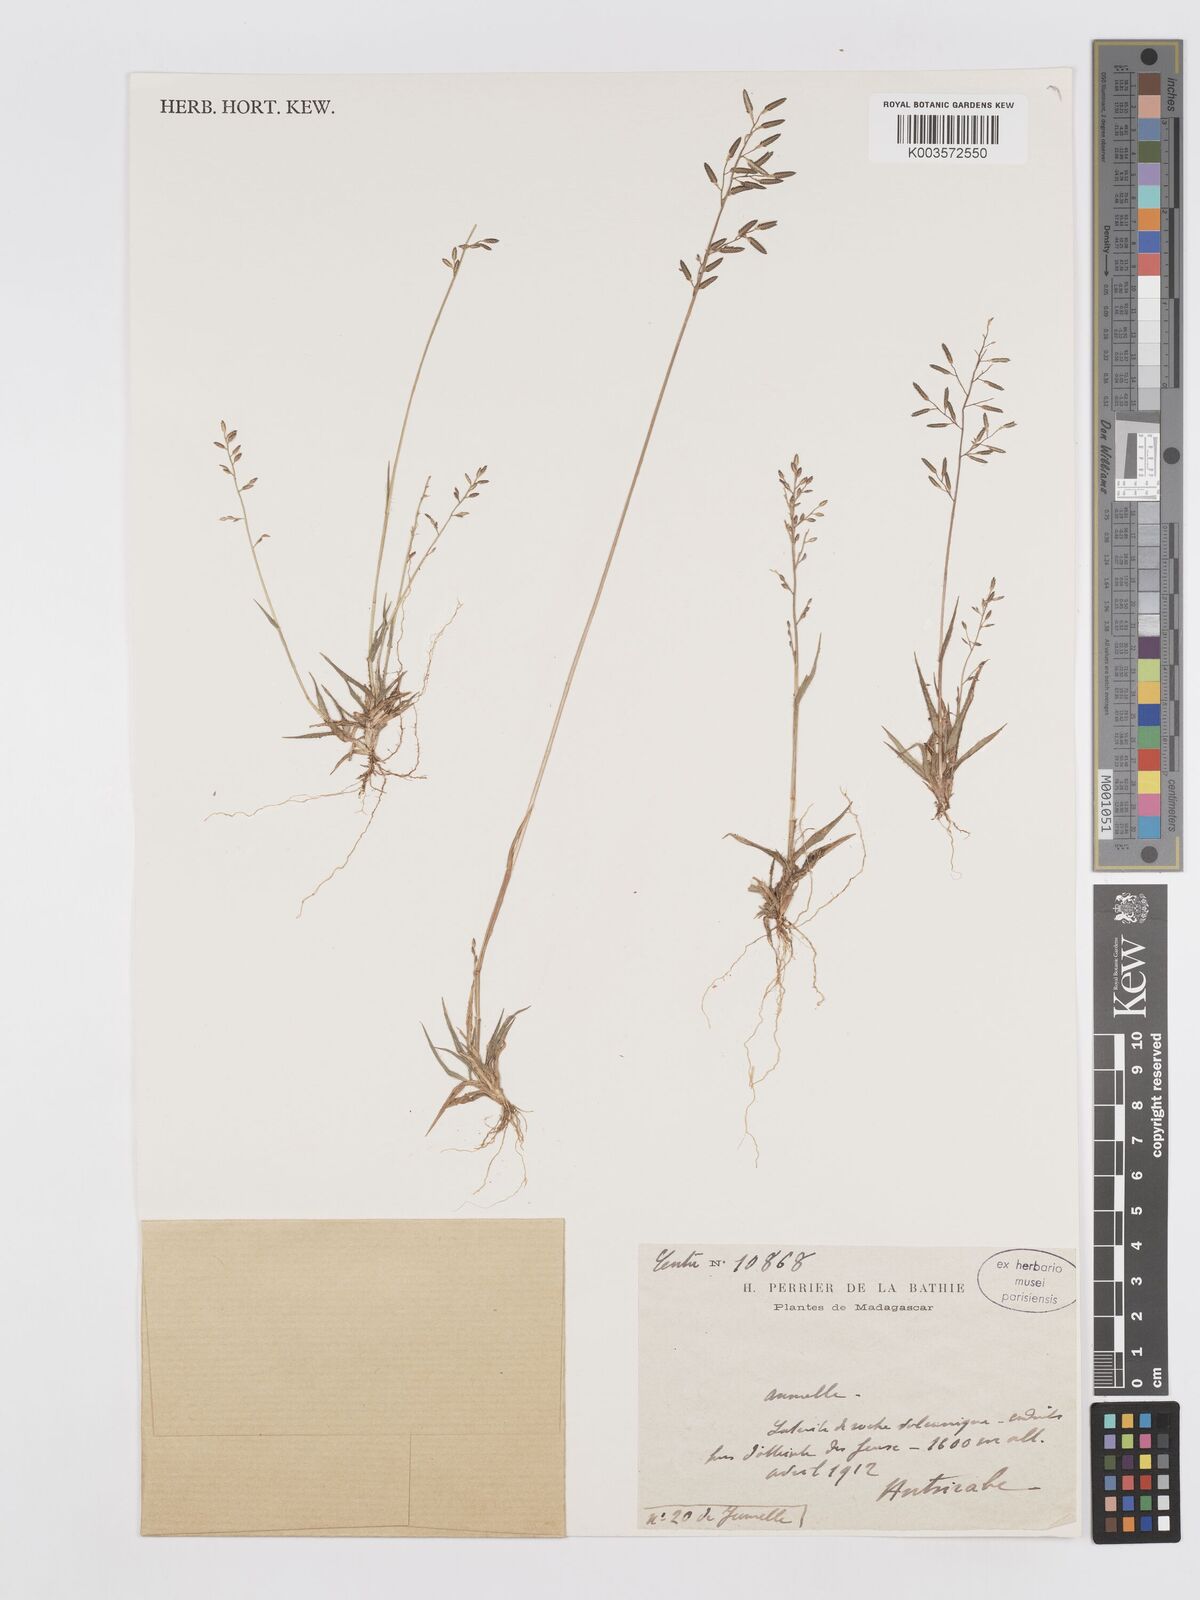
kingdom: Plantae
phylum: Tracheophyta
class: Liliopsida
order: Poales
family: Poaceae
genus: Eragrostis
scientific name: Eragrostis lateritica
